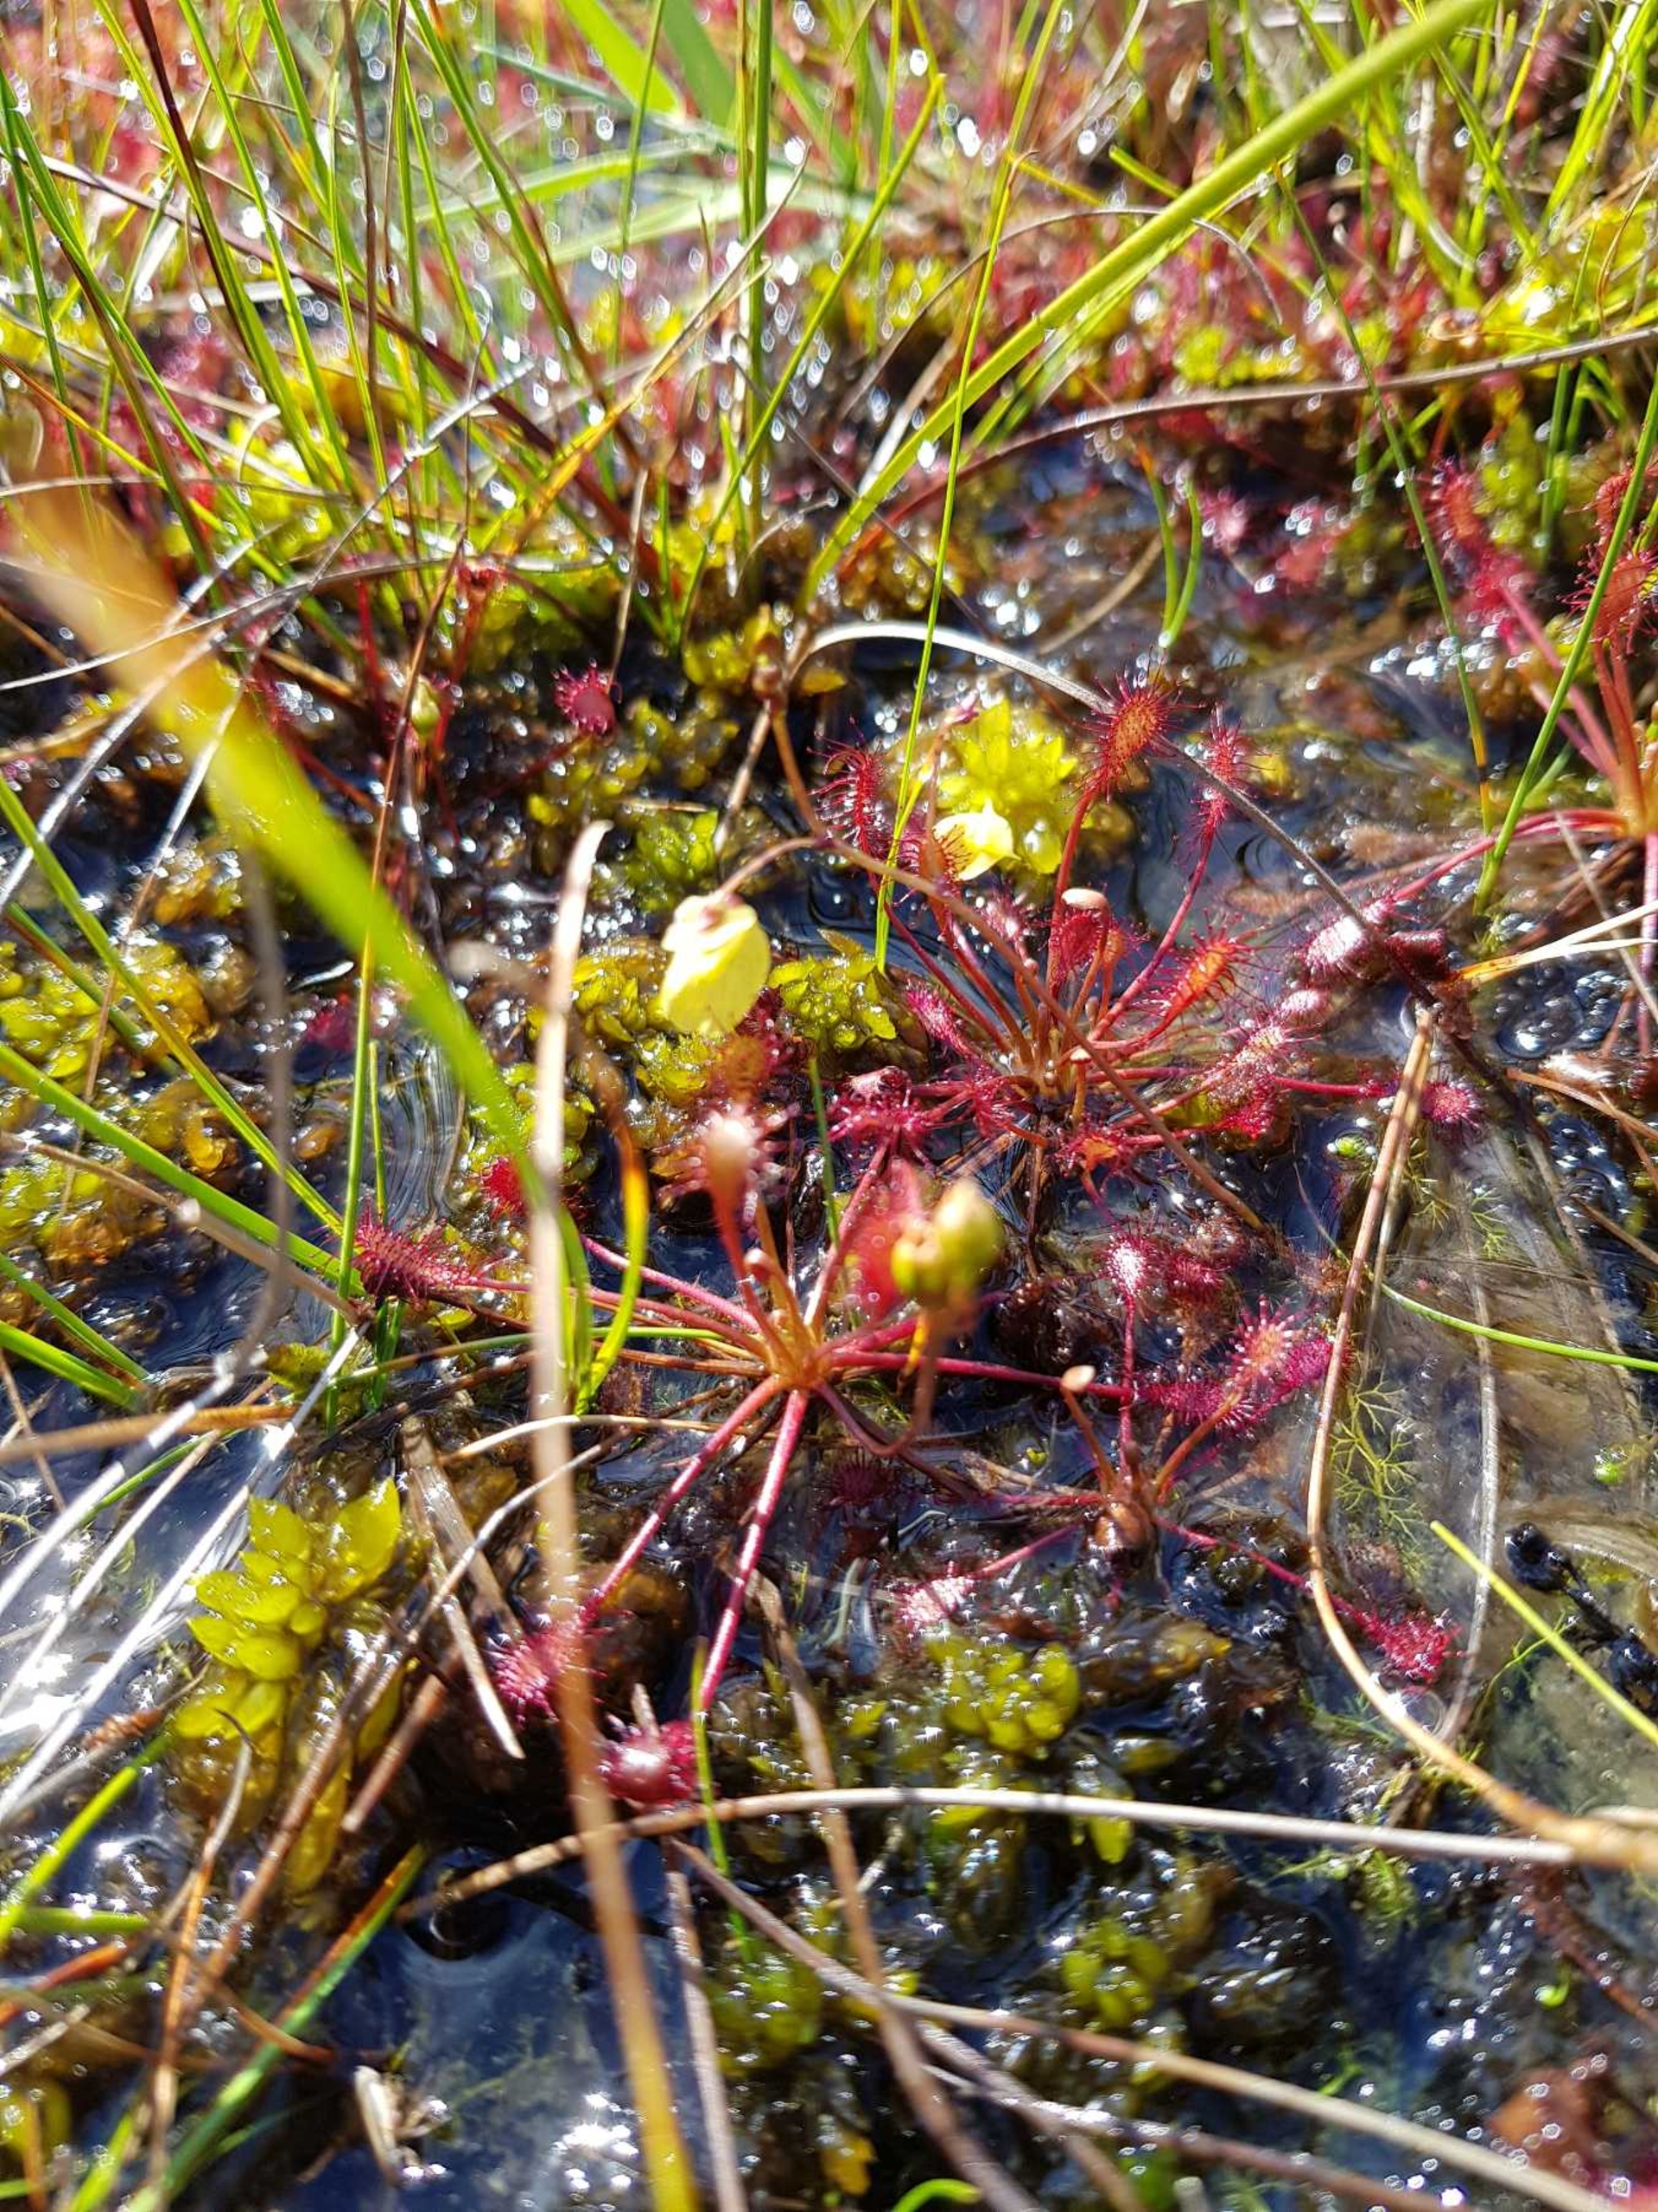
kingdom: Plantae
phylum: Tracheophyta
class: Magnoliopsida
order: Lamiales
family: Lentibulariaceae
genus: Utricularia
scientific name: Utricularia minor
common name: Liden blærerod
